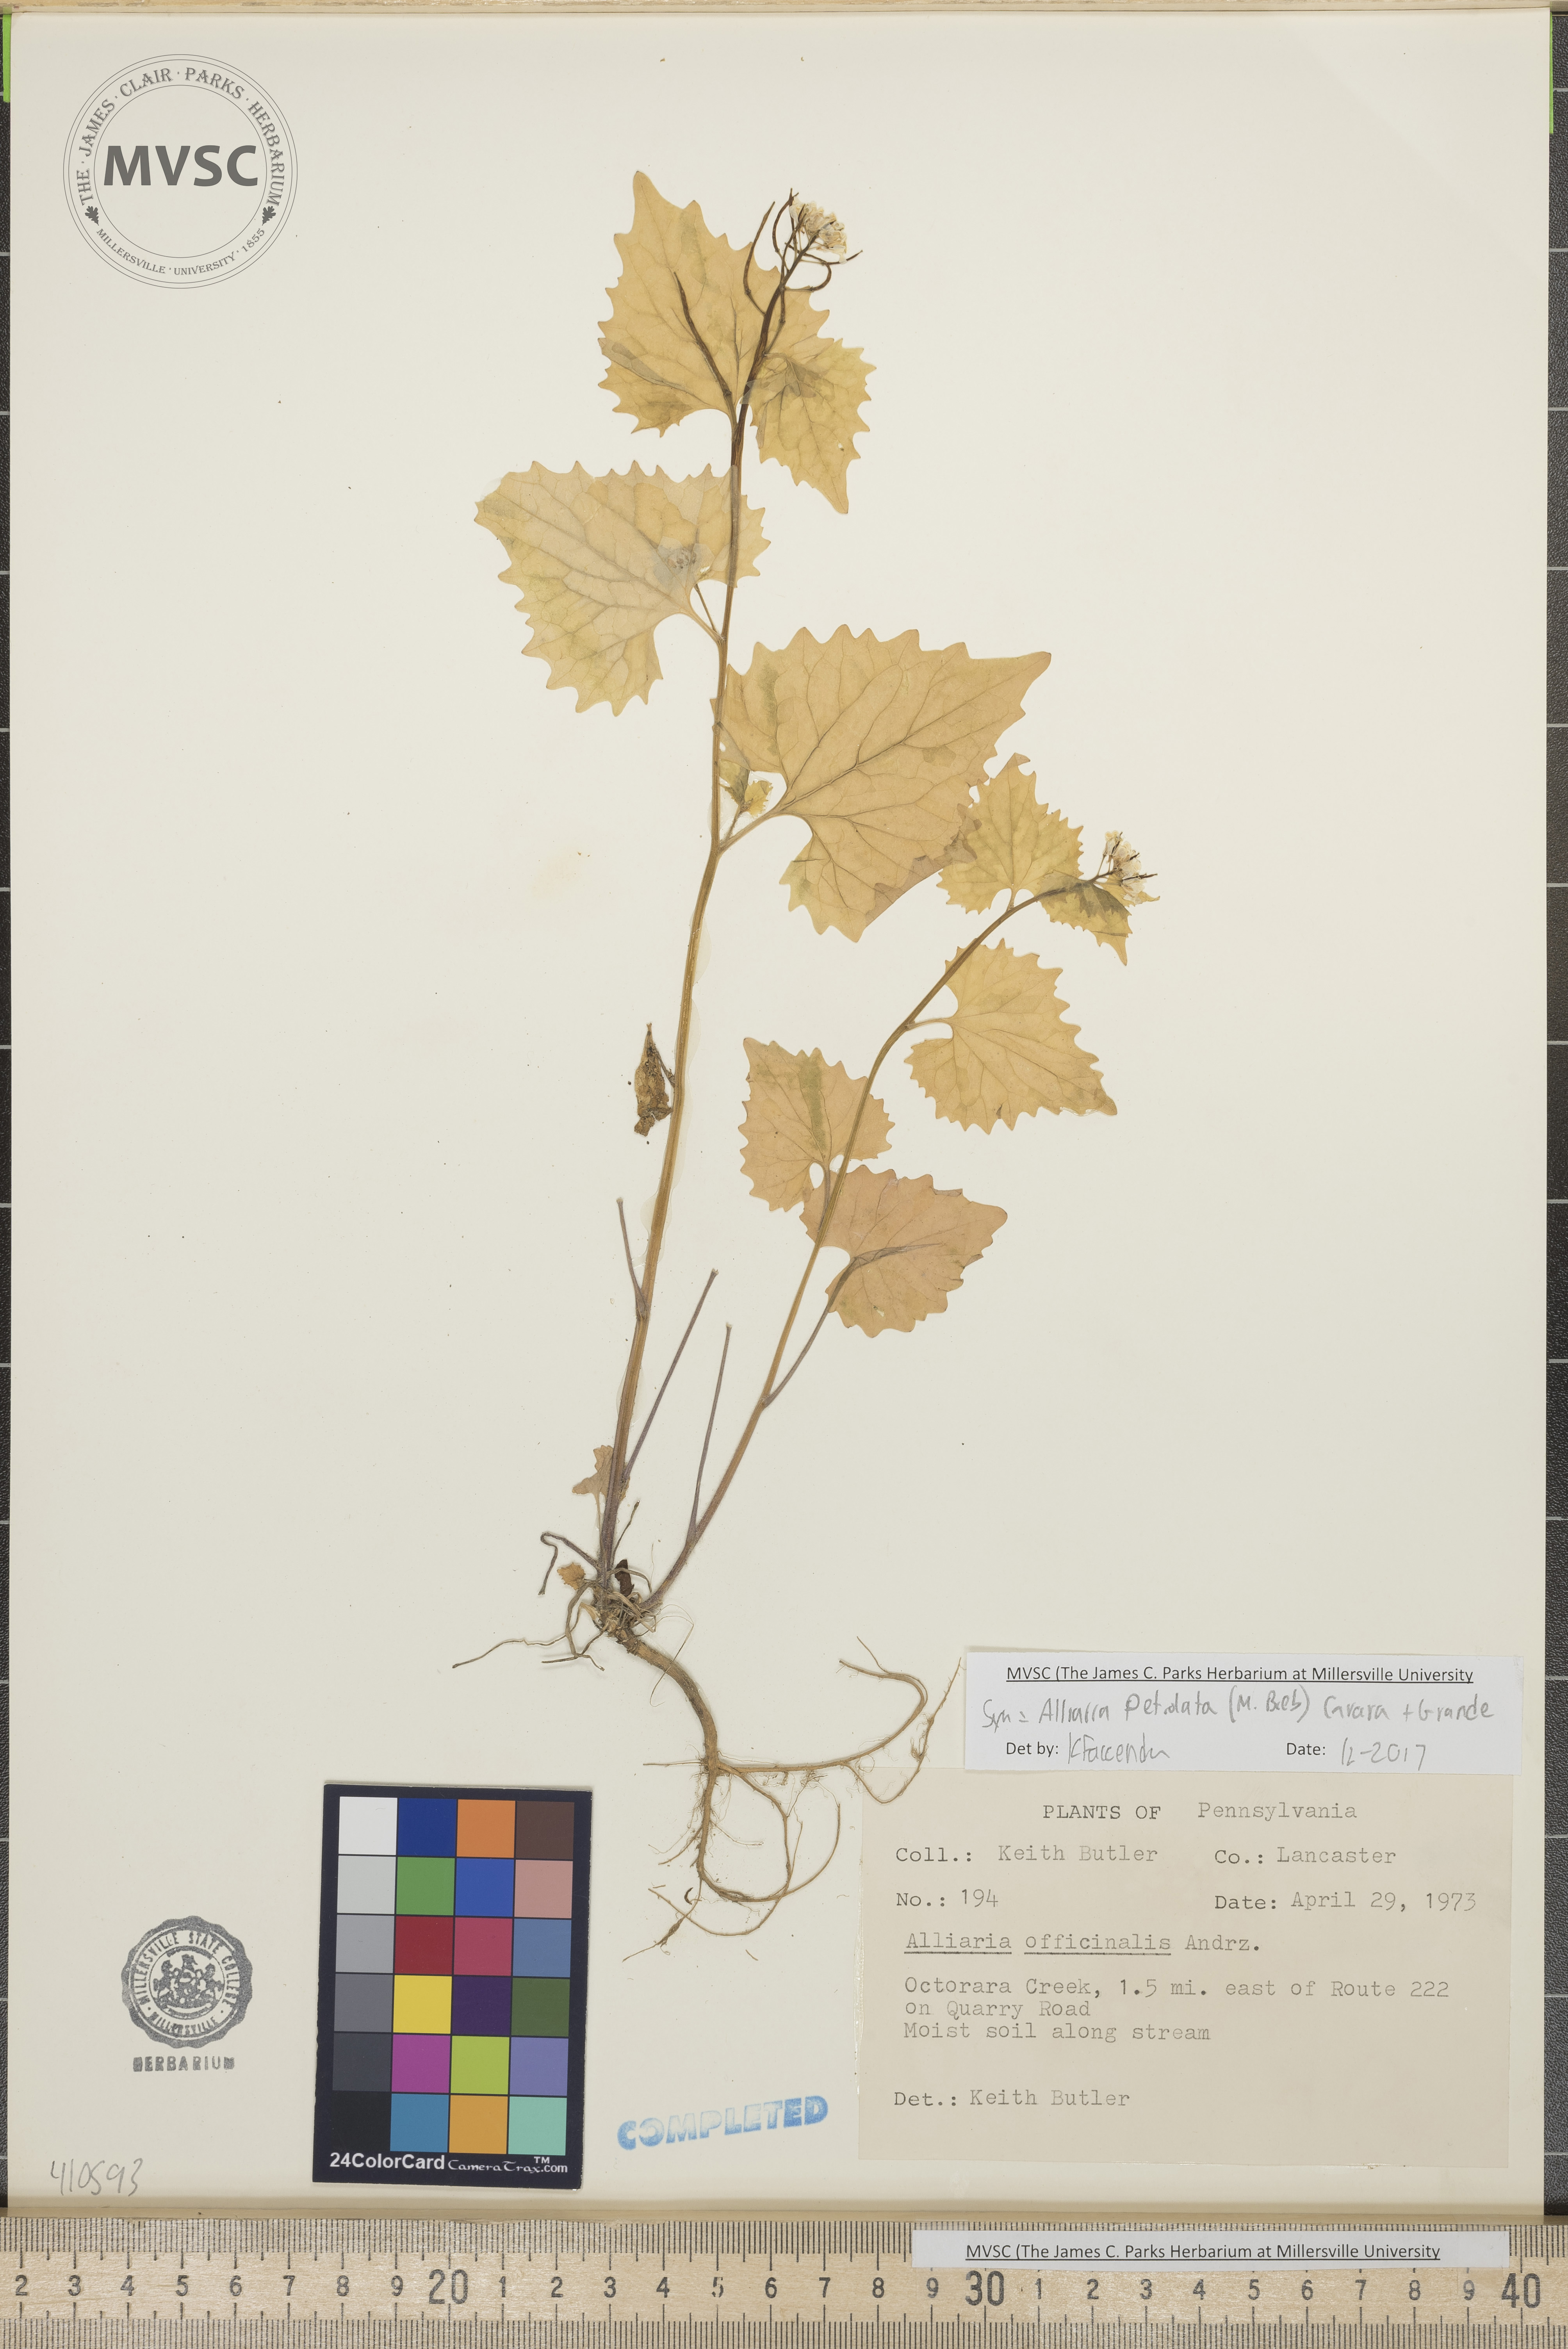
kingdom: Plantae
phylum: Tracheophyta
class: Magnoliopsida
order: Brassicales
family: Brassicaceae
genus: Alliaria
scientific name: Alliaria petiolata
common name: garlic mustard
